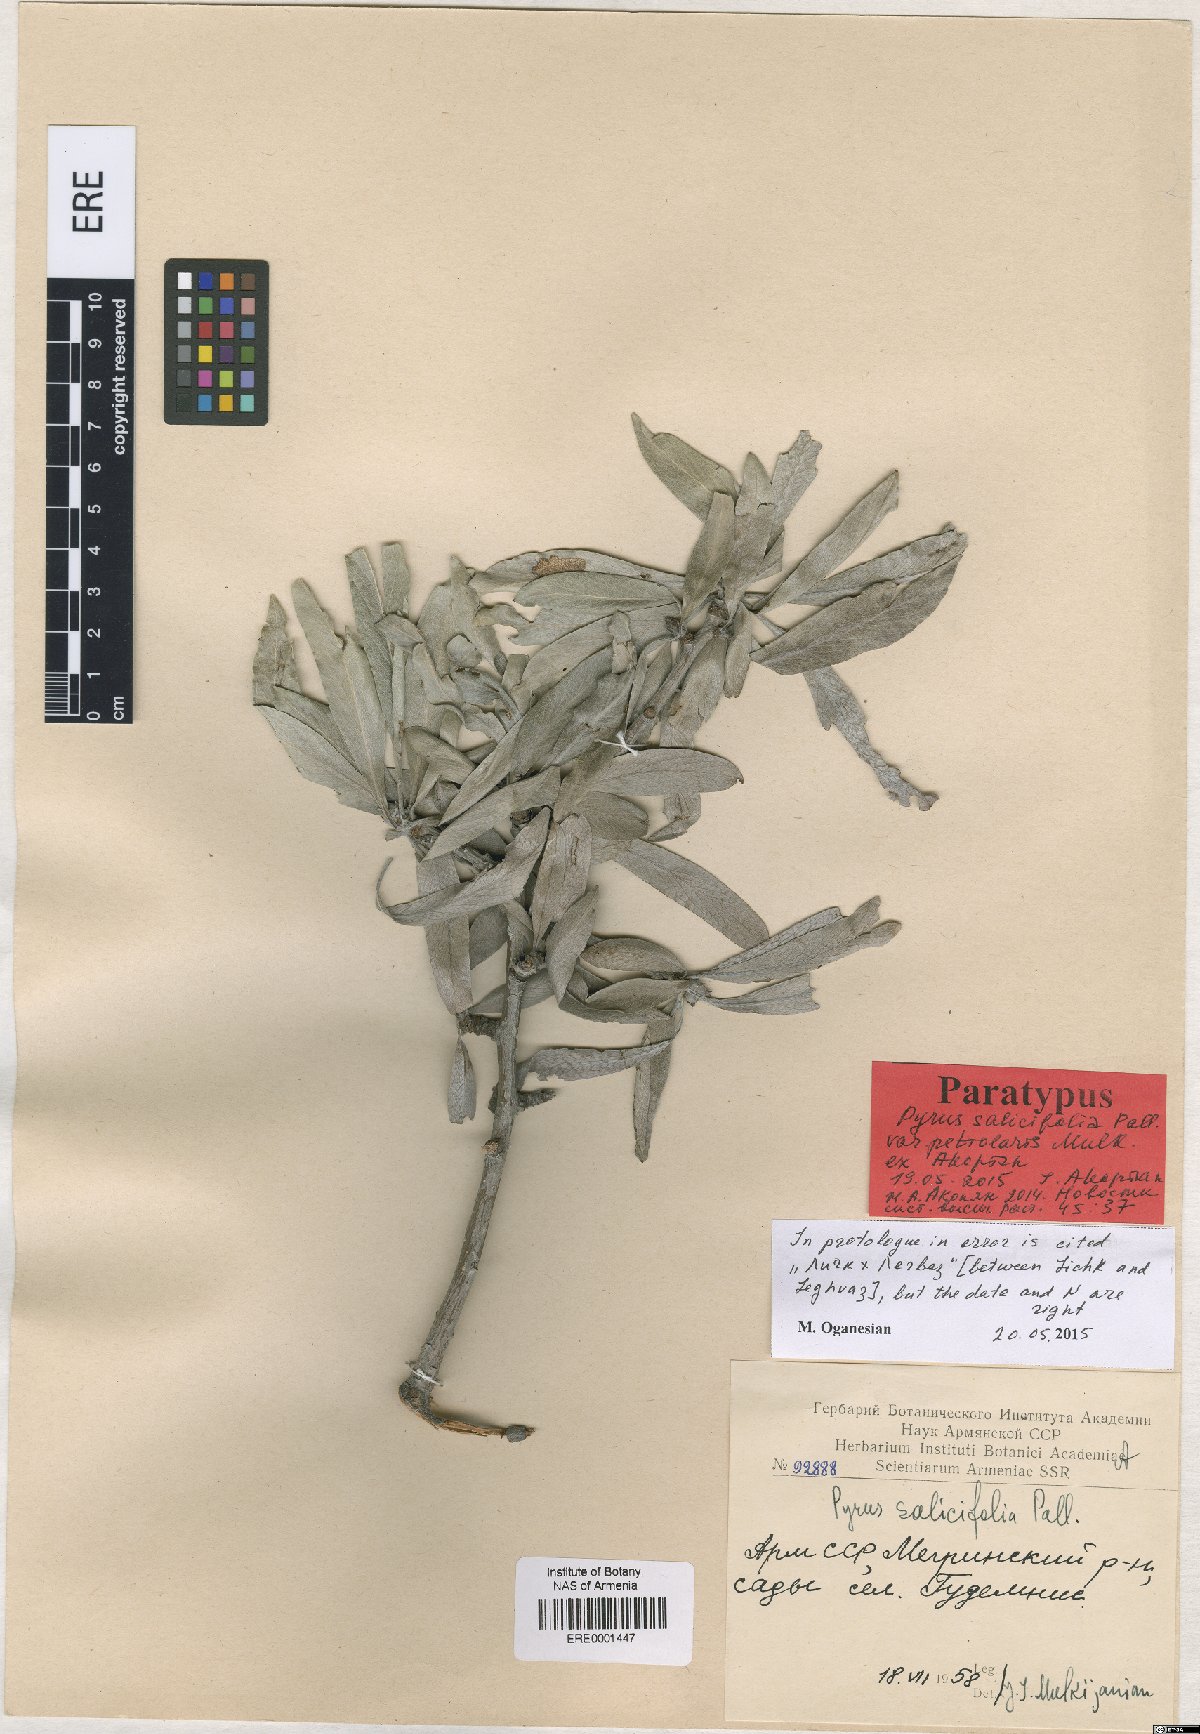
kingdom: Plantae
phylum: Tracheophyta
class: Magnoliopsida
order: Rosales
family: Rosaceae
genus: Pyrus
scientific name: Pyrus salicifolia
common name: Willow-leaved pear
